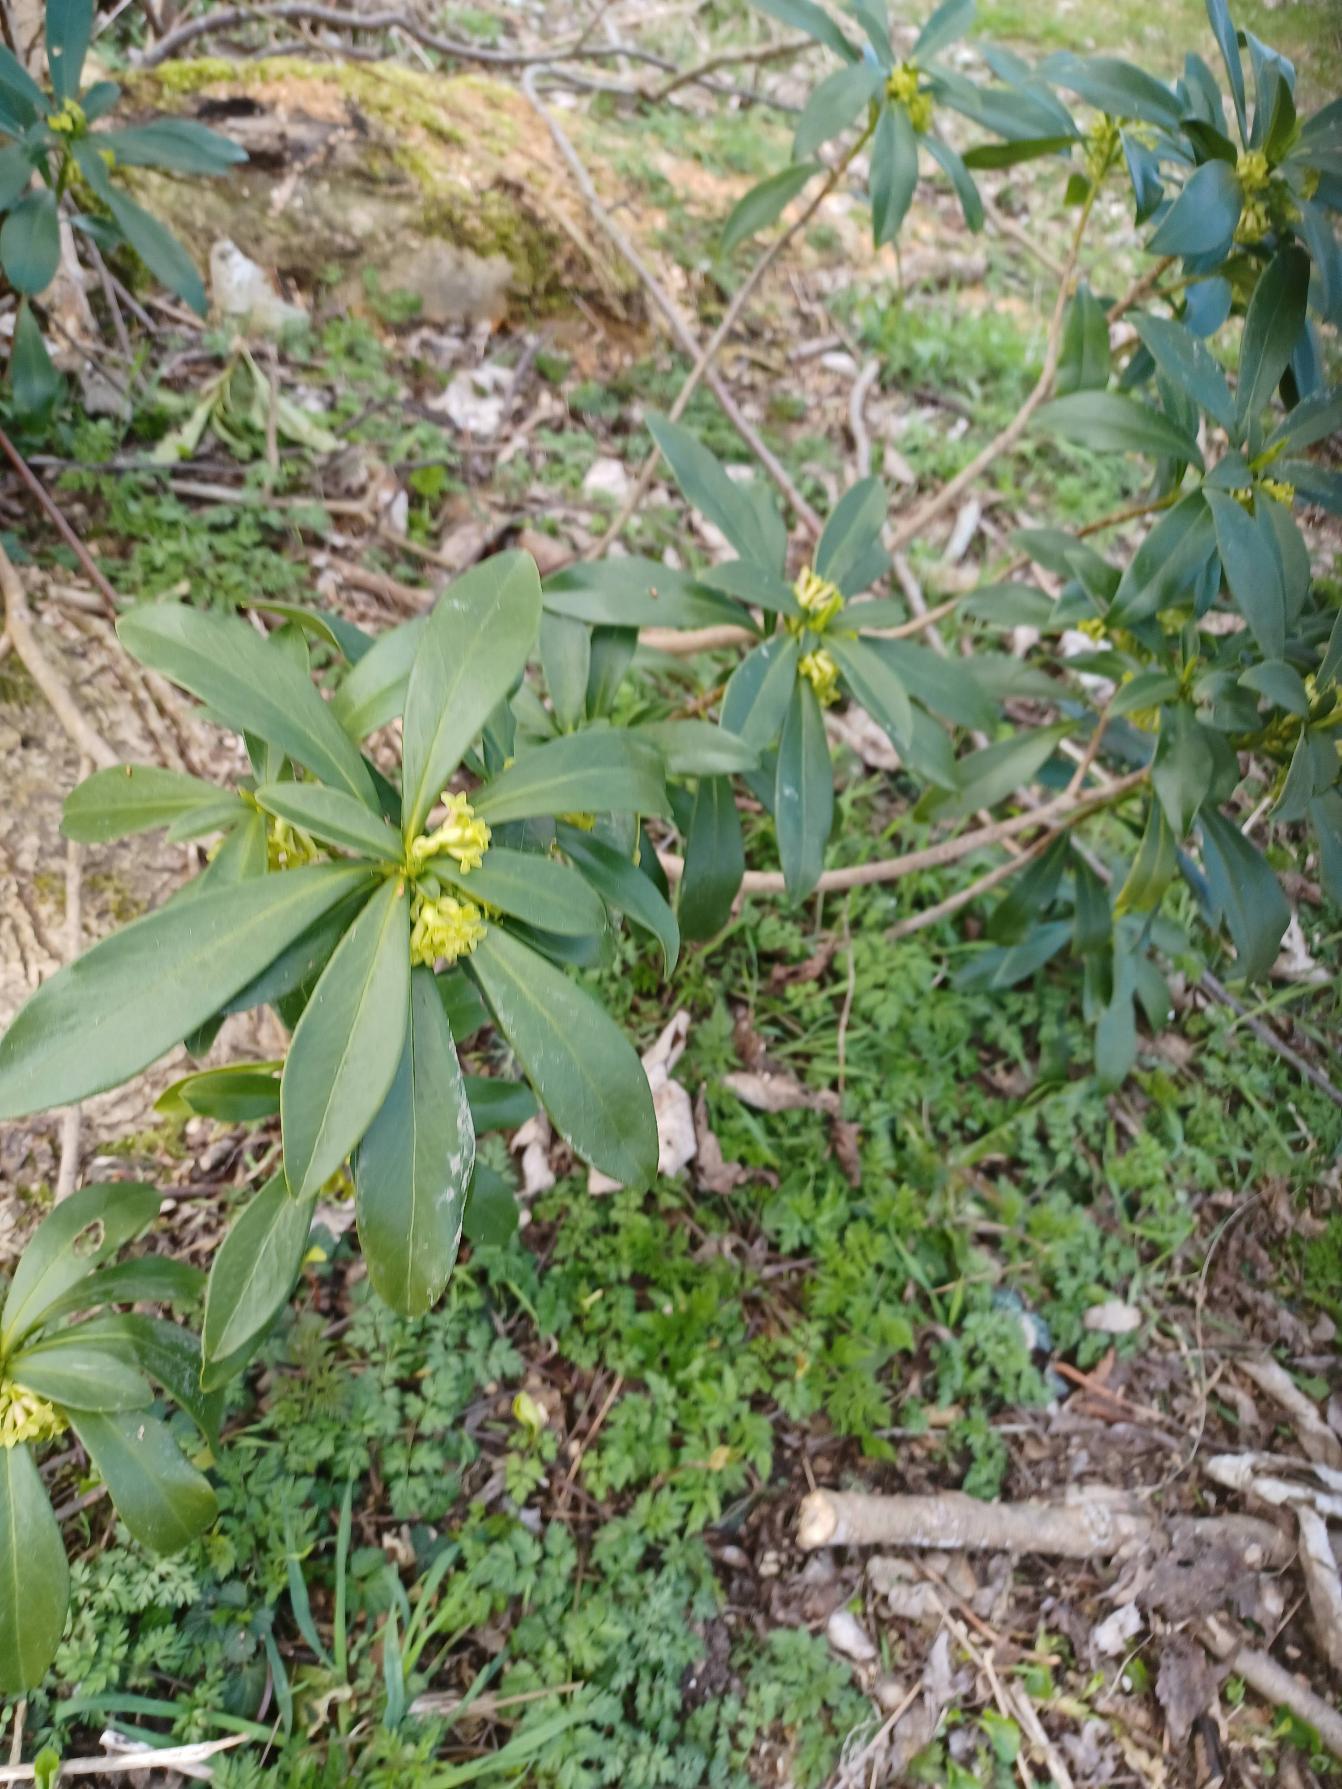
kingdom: Plantae
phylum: Tracheophyta
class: Magnoliopsida
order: Malvales
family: Thymelaeaceae
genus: Daphne
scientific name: Daphne laureola
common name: Laurbær-dafne
